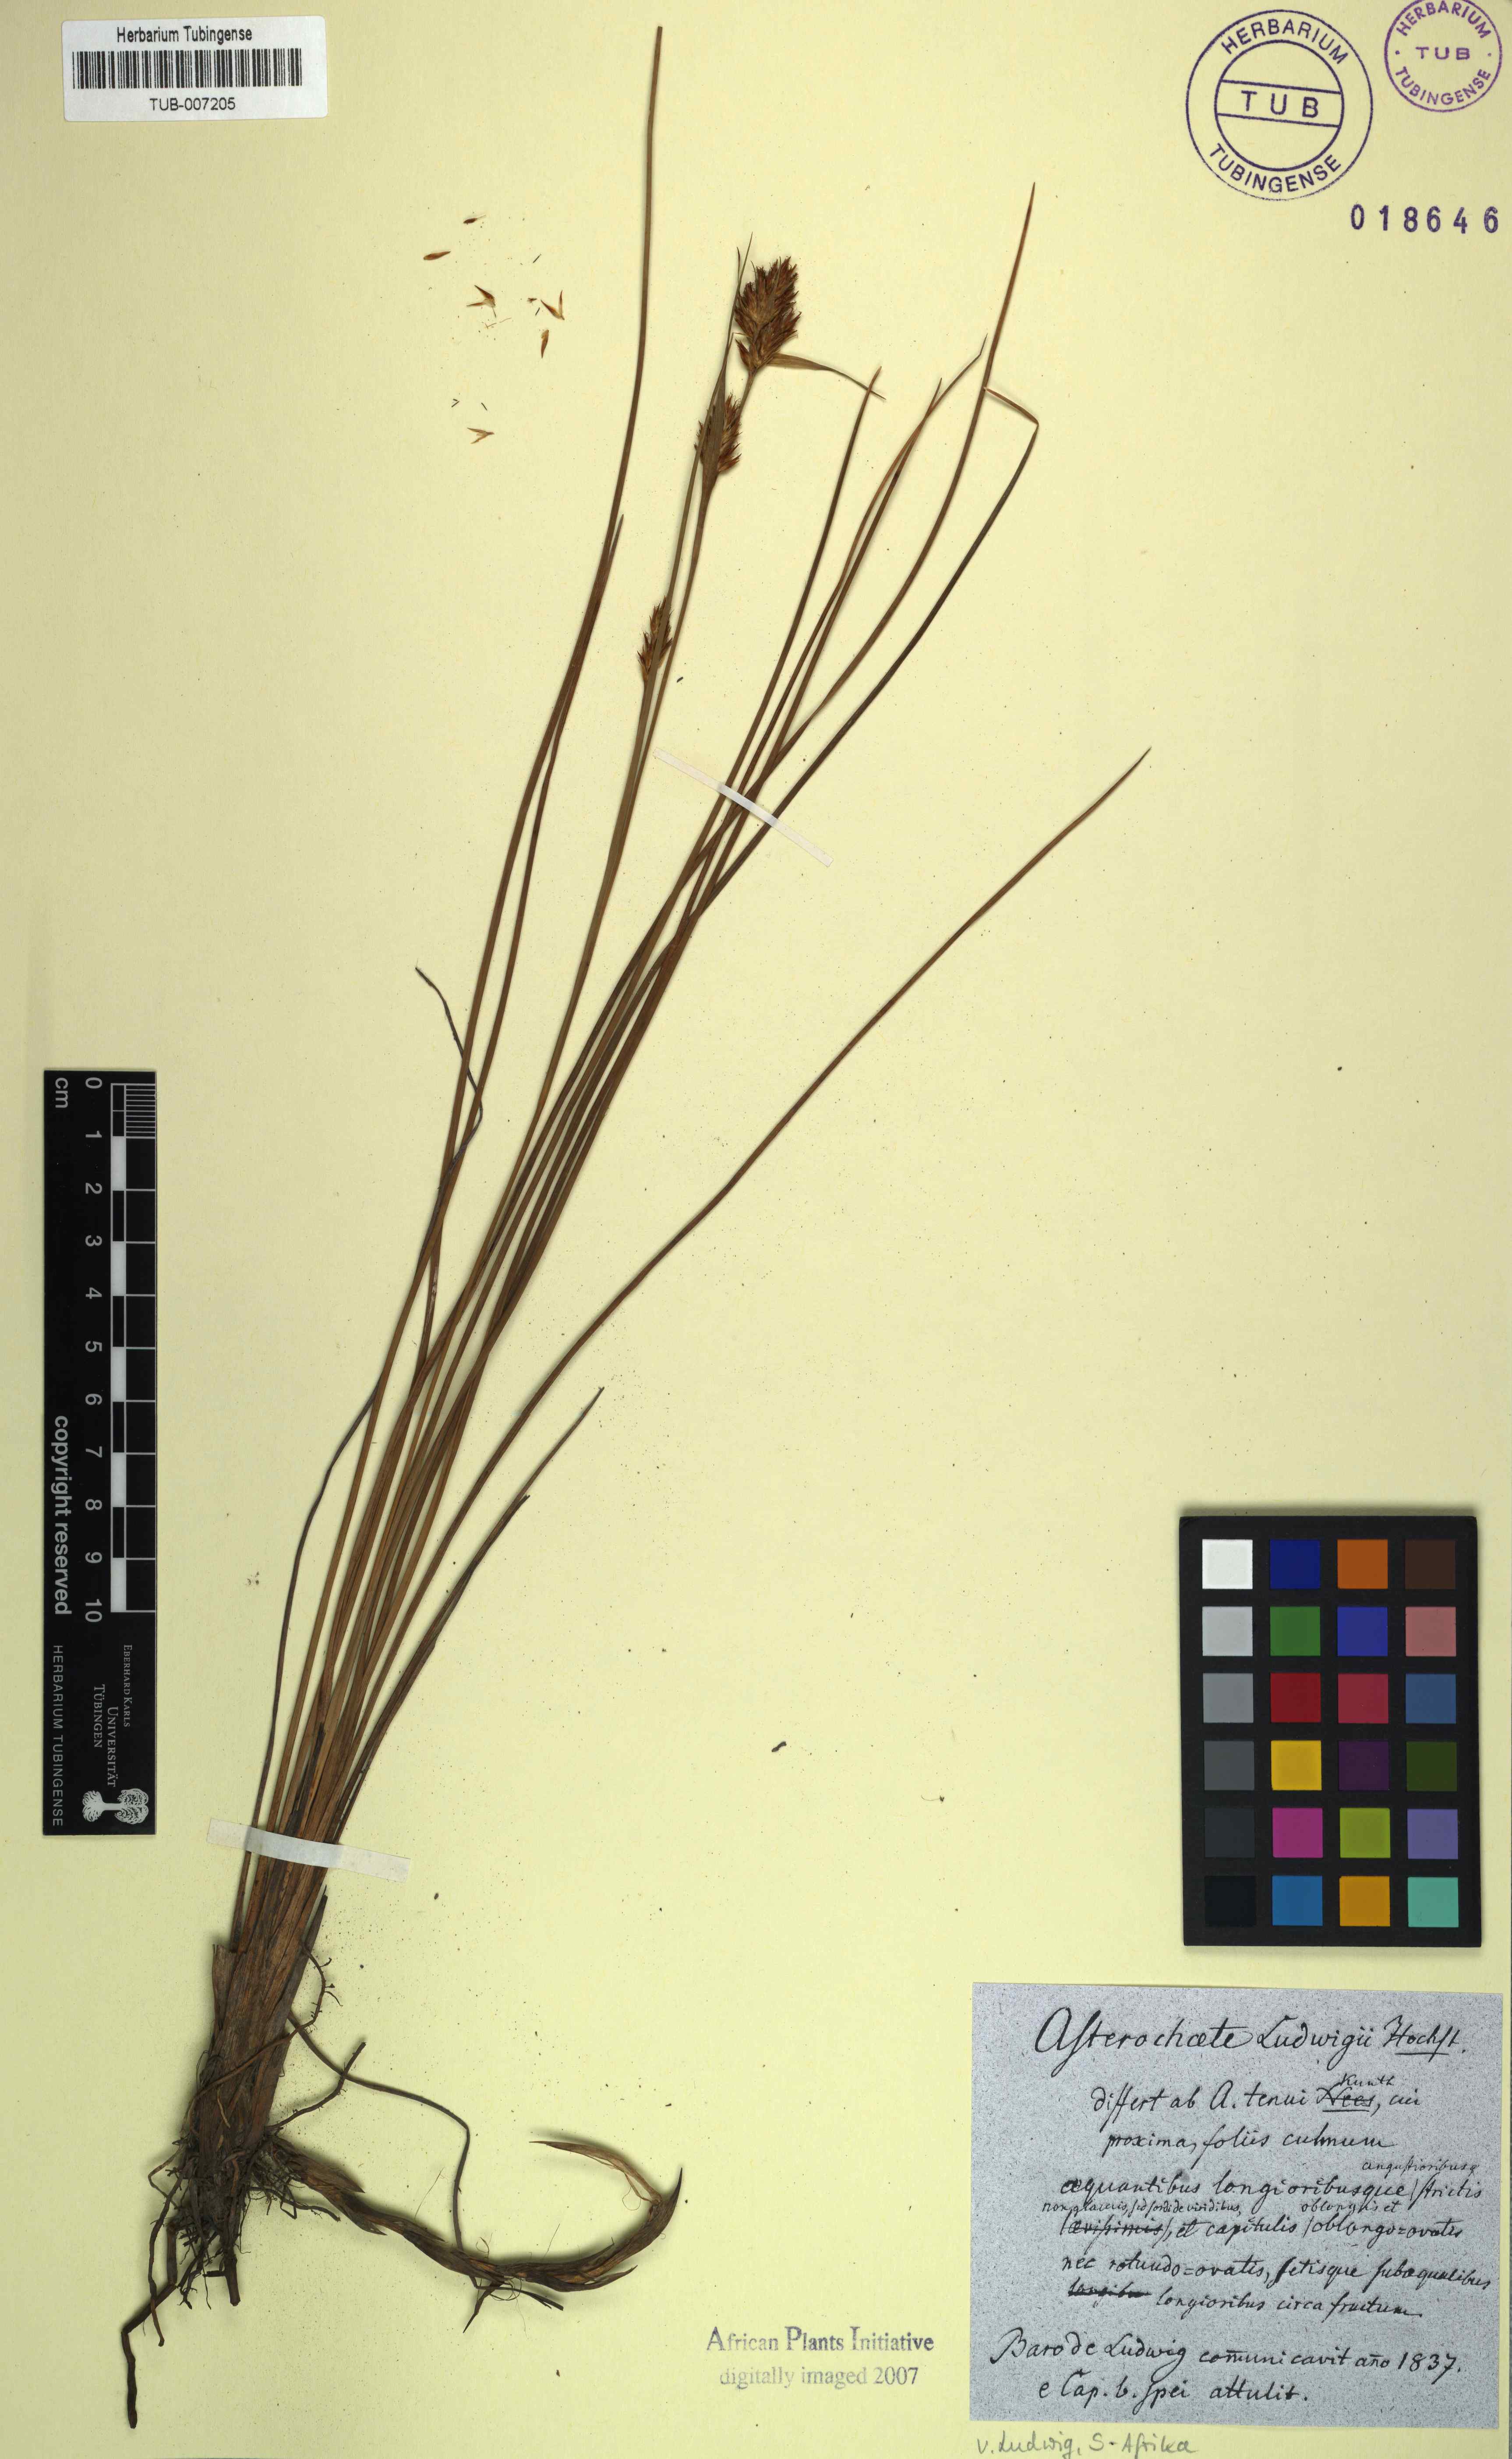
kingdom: Plantae
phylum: Tracheophyta
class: Liliopsida
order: Poales
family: Cyperaceae
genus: Carpha
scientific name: Carpha capitellata
